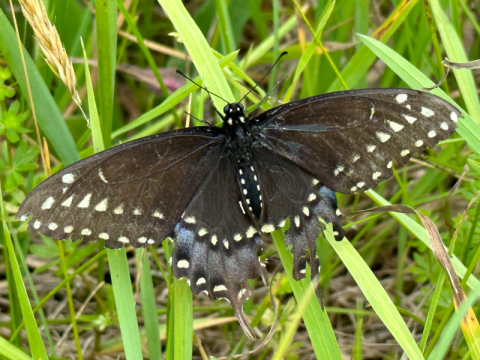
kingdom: Animalia
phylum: Arthropoda
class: Insecta
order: Lepidoptera
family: Papilionidae
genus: Papilio
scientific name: Papilio polyxenes
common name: Black Swallowtail
